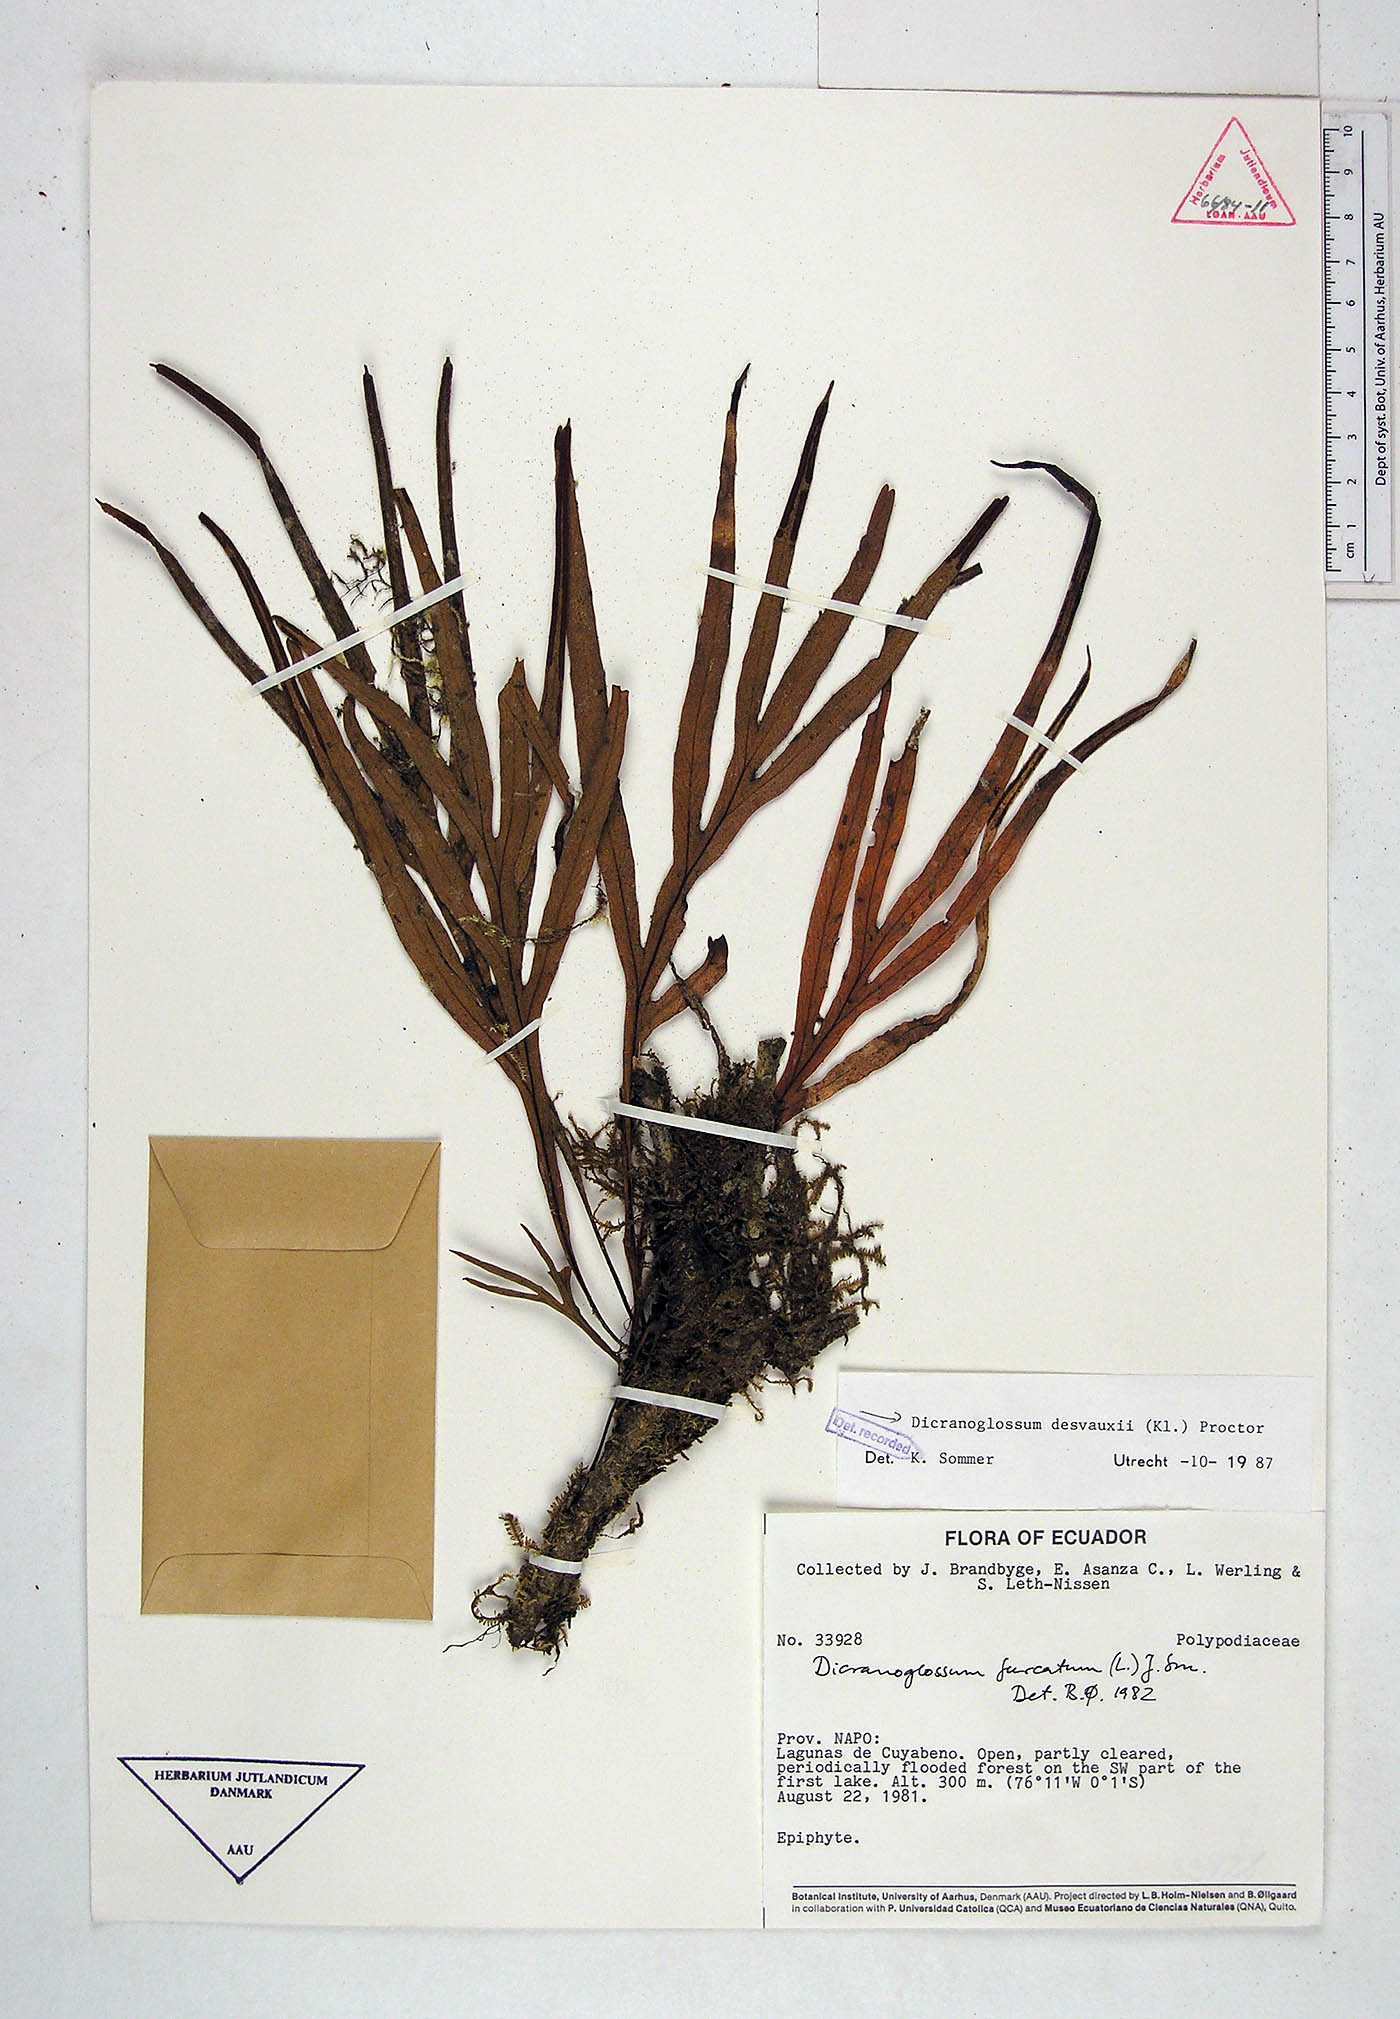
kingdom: Plantae
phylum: Tracheophyta
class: Polypodiopsida
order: Polypodiales
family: Polypodiaceae
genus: Pleopeltis
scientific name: Pleopeltis desvauxii
